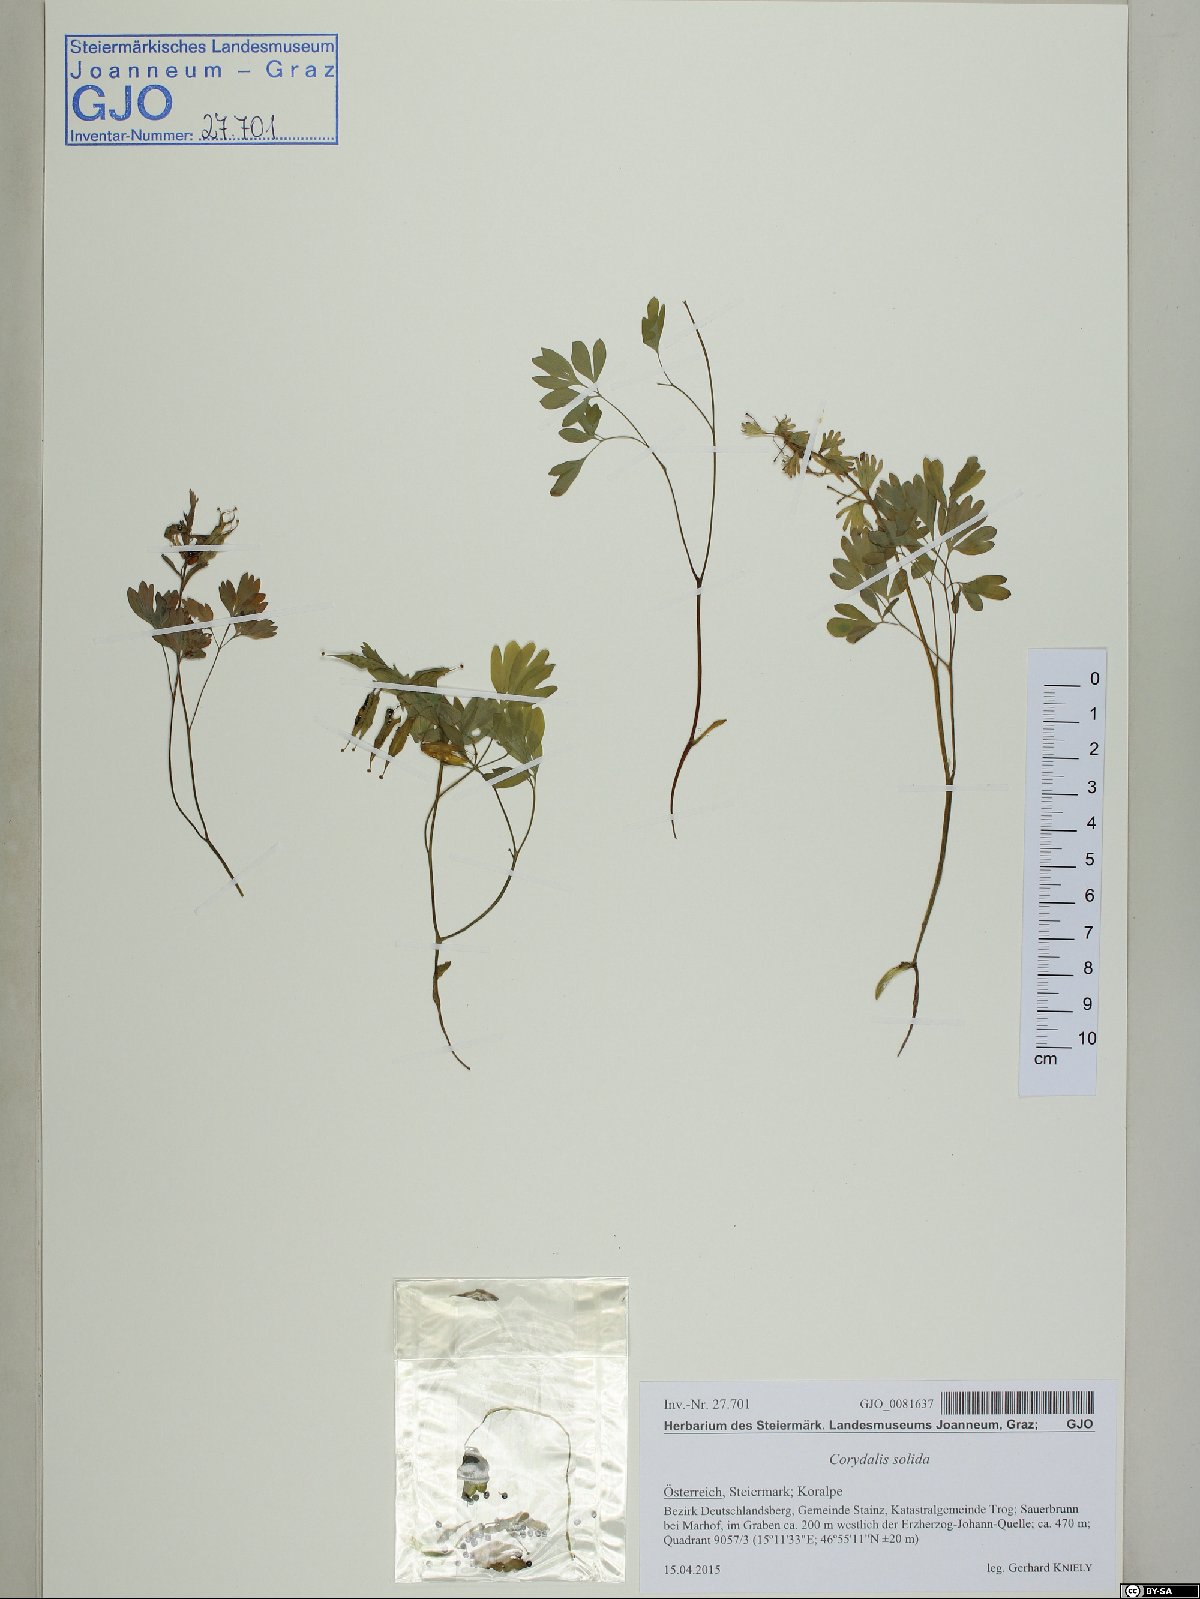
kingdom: Plantae
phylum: Tracheophyta
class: Magnoliopsida
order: Ranunculales
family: Papaveraceae
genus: Corydalis
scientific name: Corydalis solida
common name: Bird-in-a-bush
